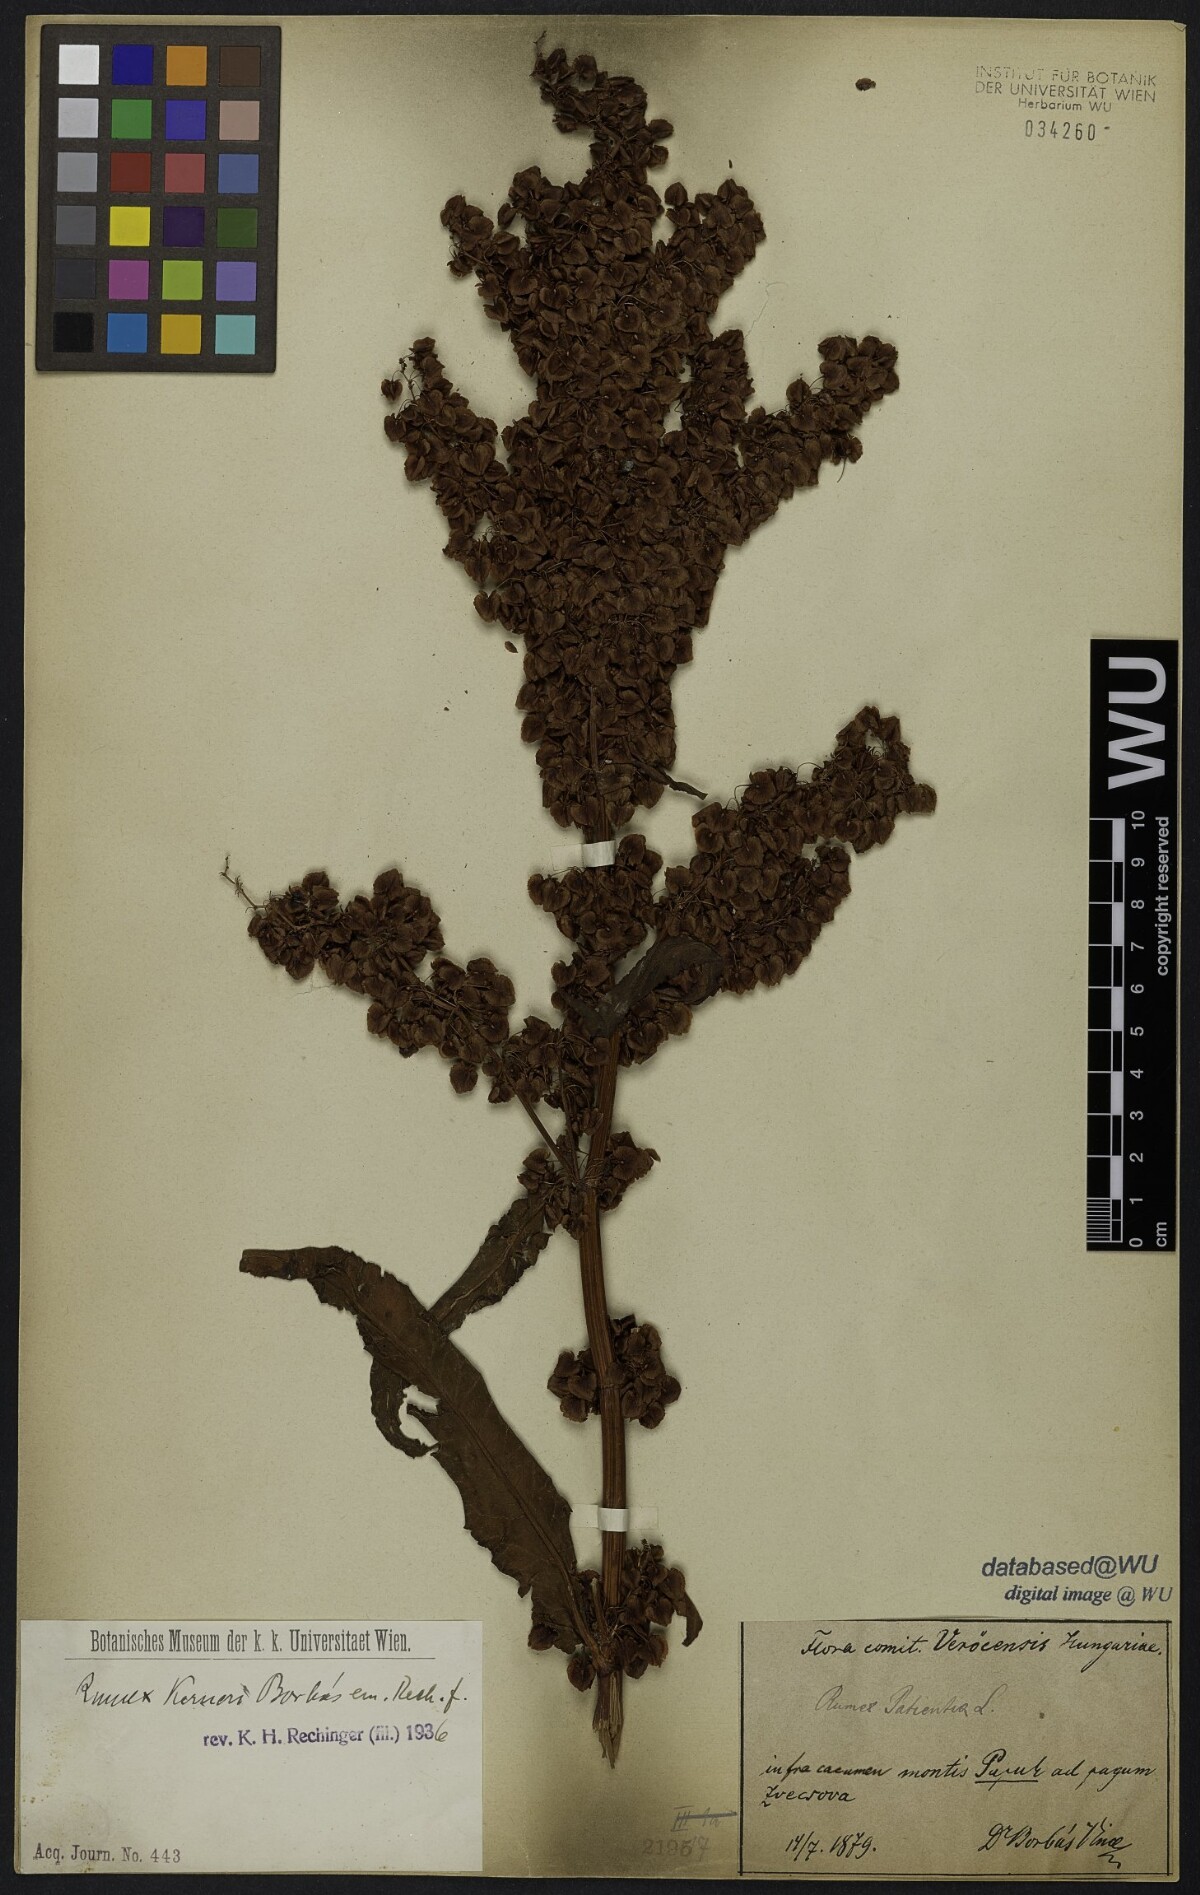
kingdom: Plantae
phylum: Tracheophyta
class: Magnoliopsida
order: Caryophyllales
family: Polygonaceae
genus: Rumex
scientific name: Rumex kerneri
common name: Kerner's dock
